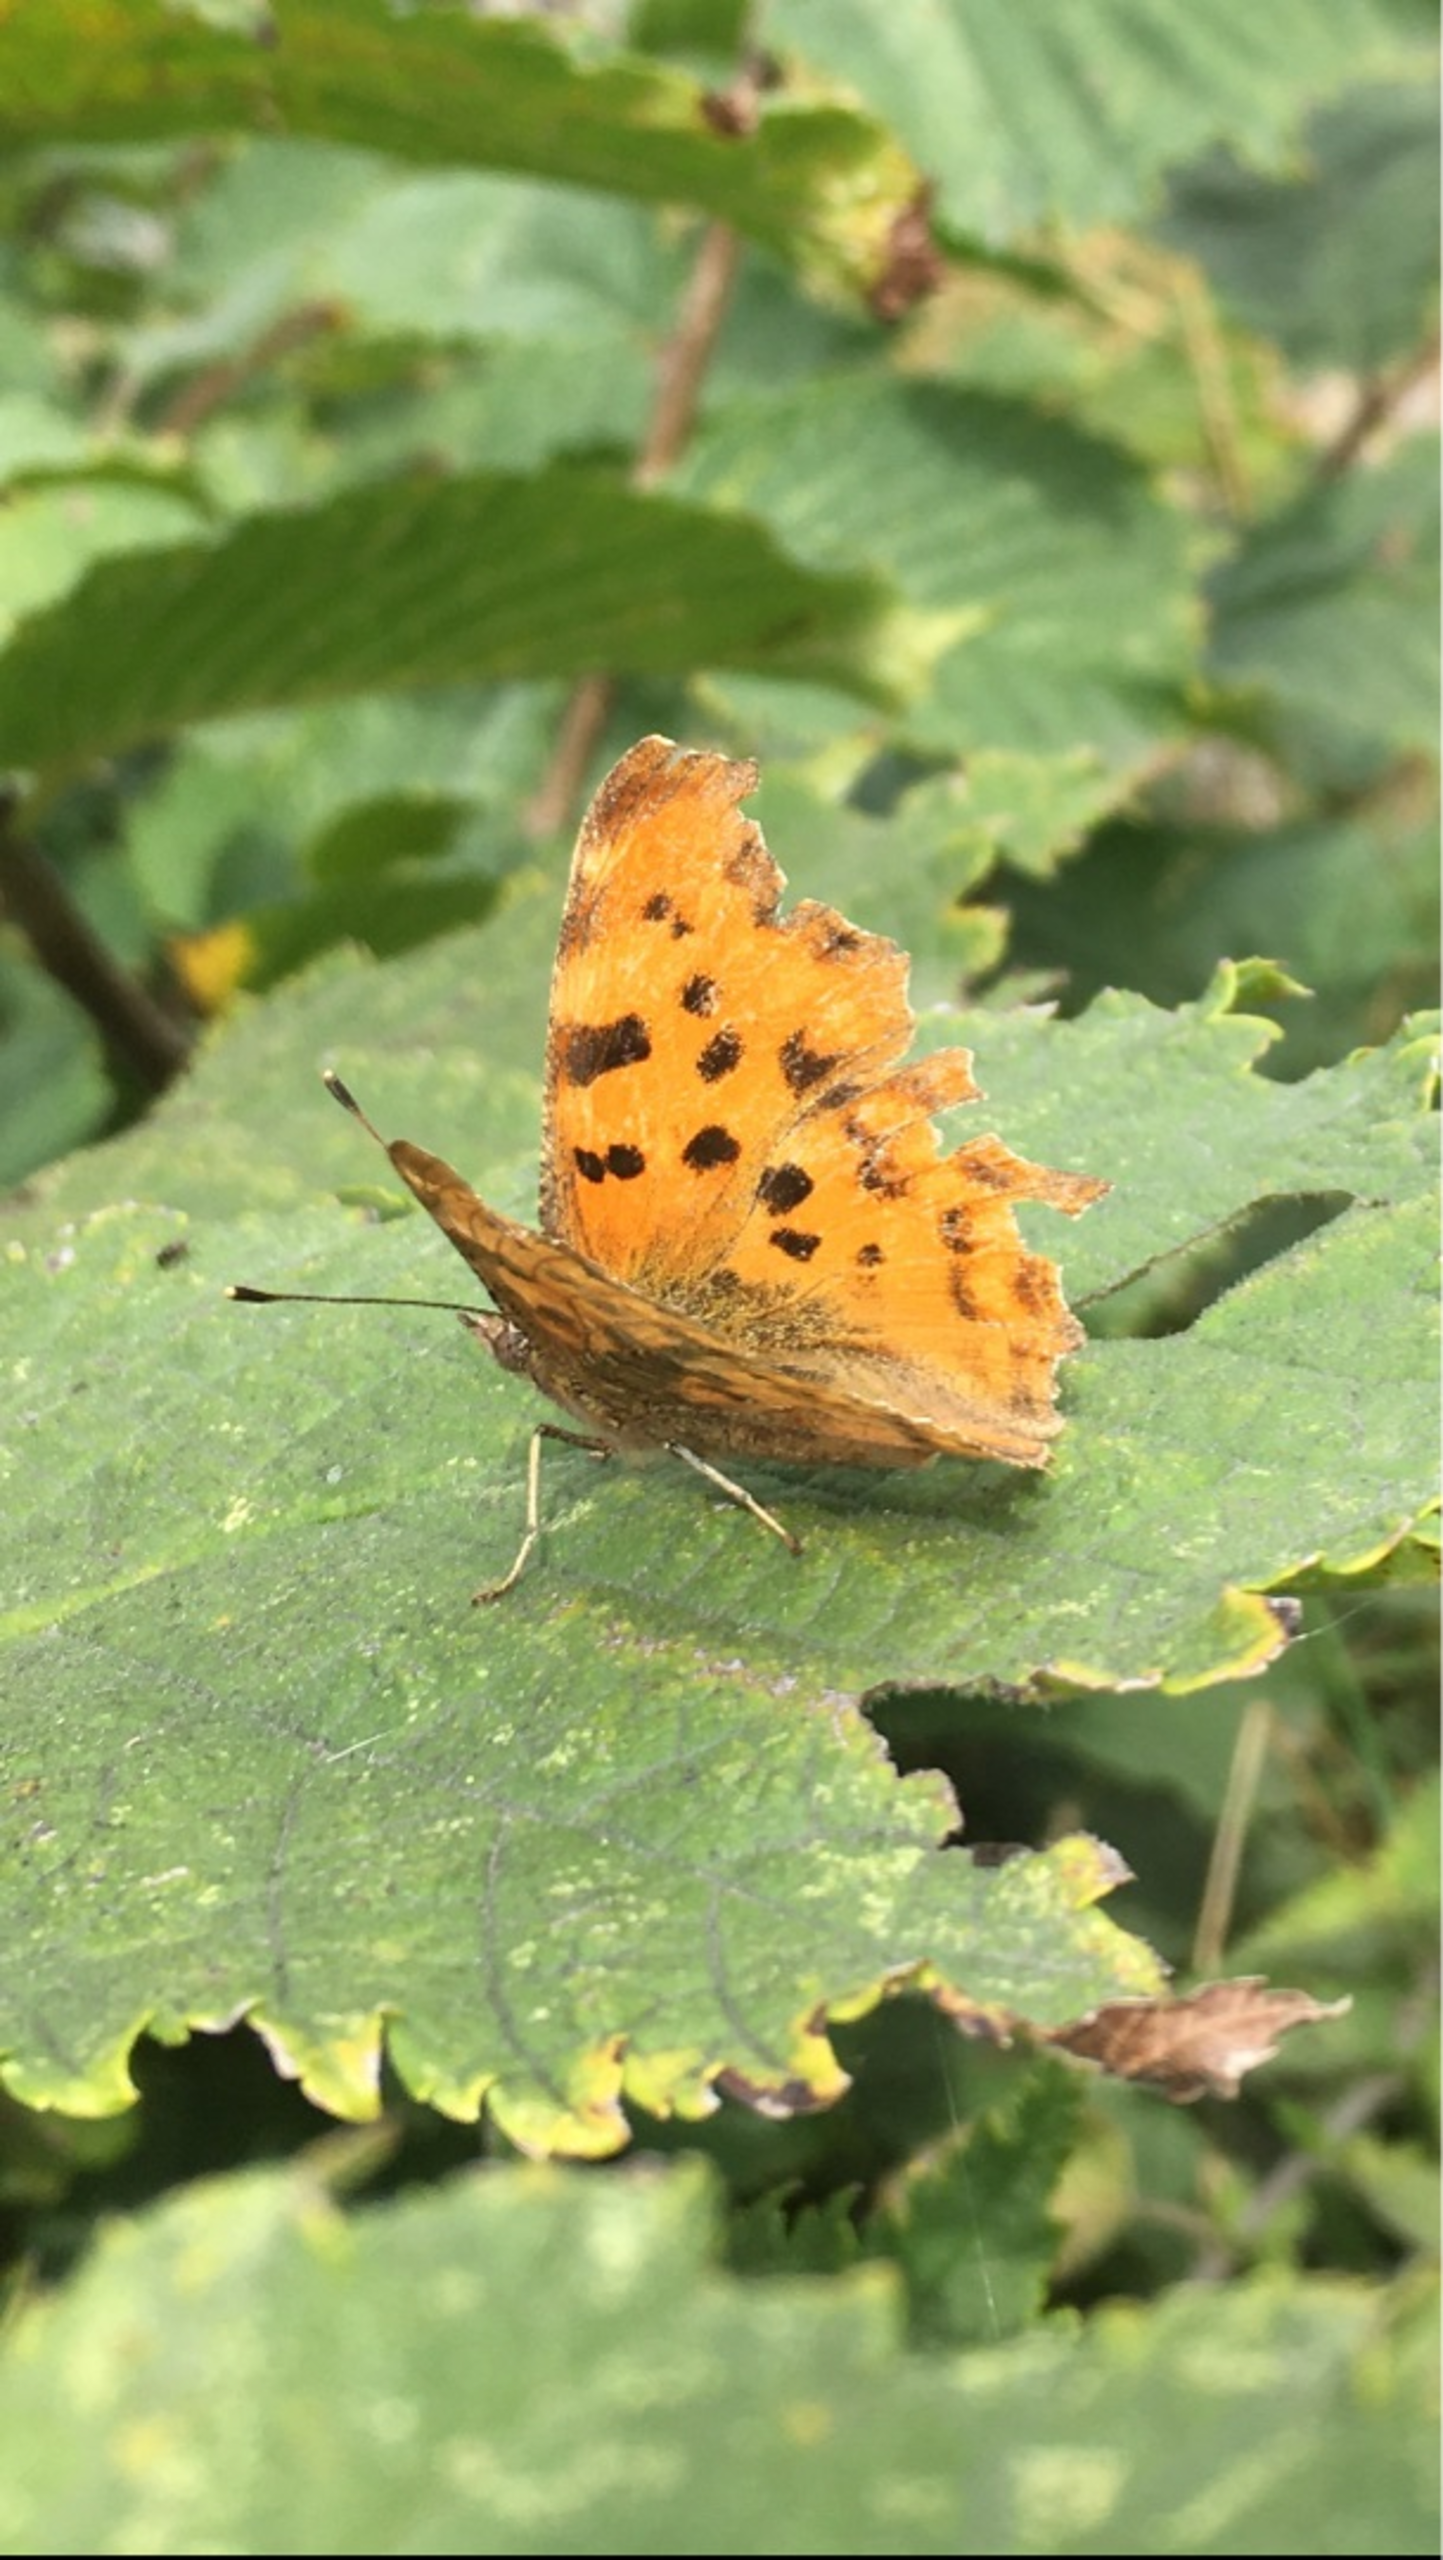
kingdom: Animalia
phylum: Arthropoda
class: Insecta
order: Lepidoptera
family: Nymphalidae
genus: Polygonia
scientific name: Polygonia c-album
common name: Det hvide C
